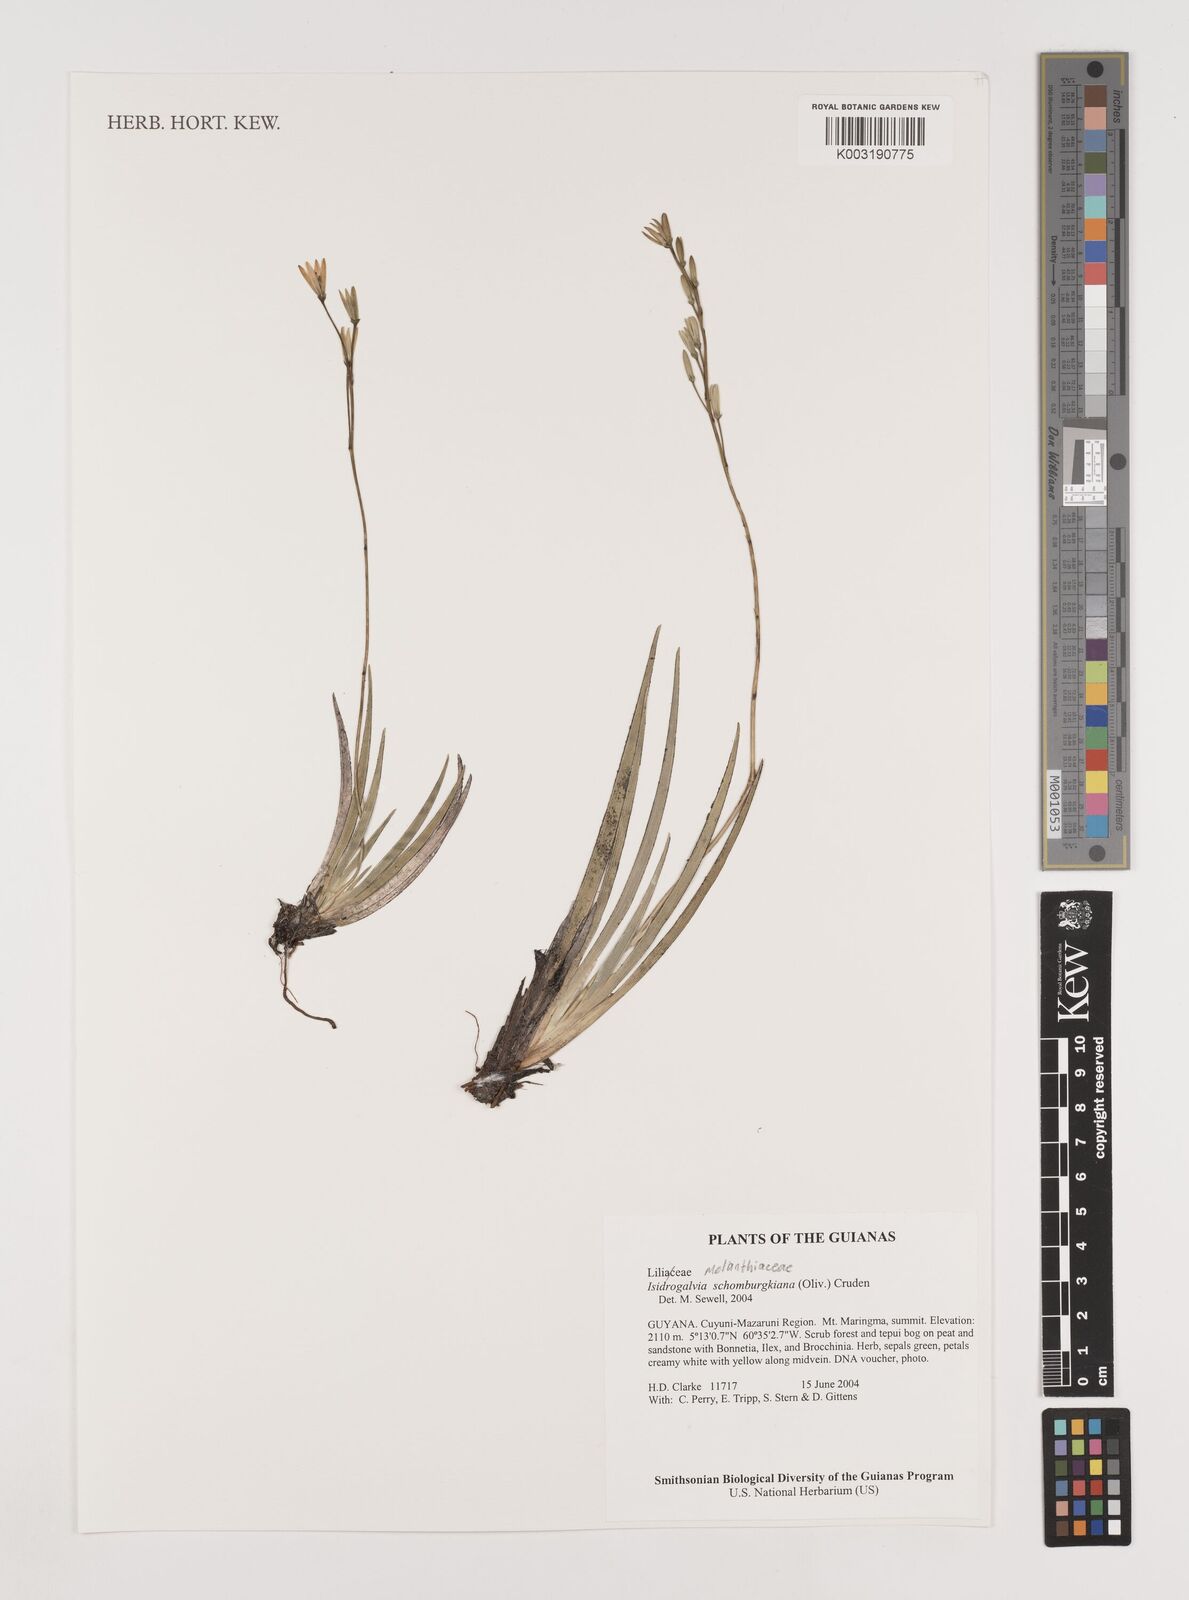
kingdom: Plantae
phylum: Tracheophyta
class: Liliopsida
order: Alismatales
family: Tofieldiaceae
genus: Harperocallis
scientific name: Harperocallis schomburgkiana
